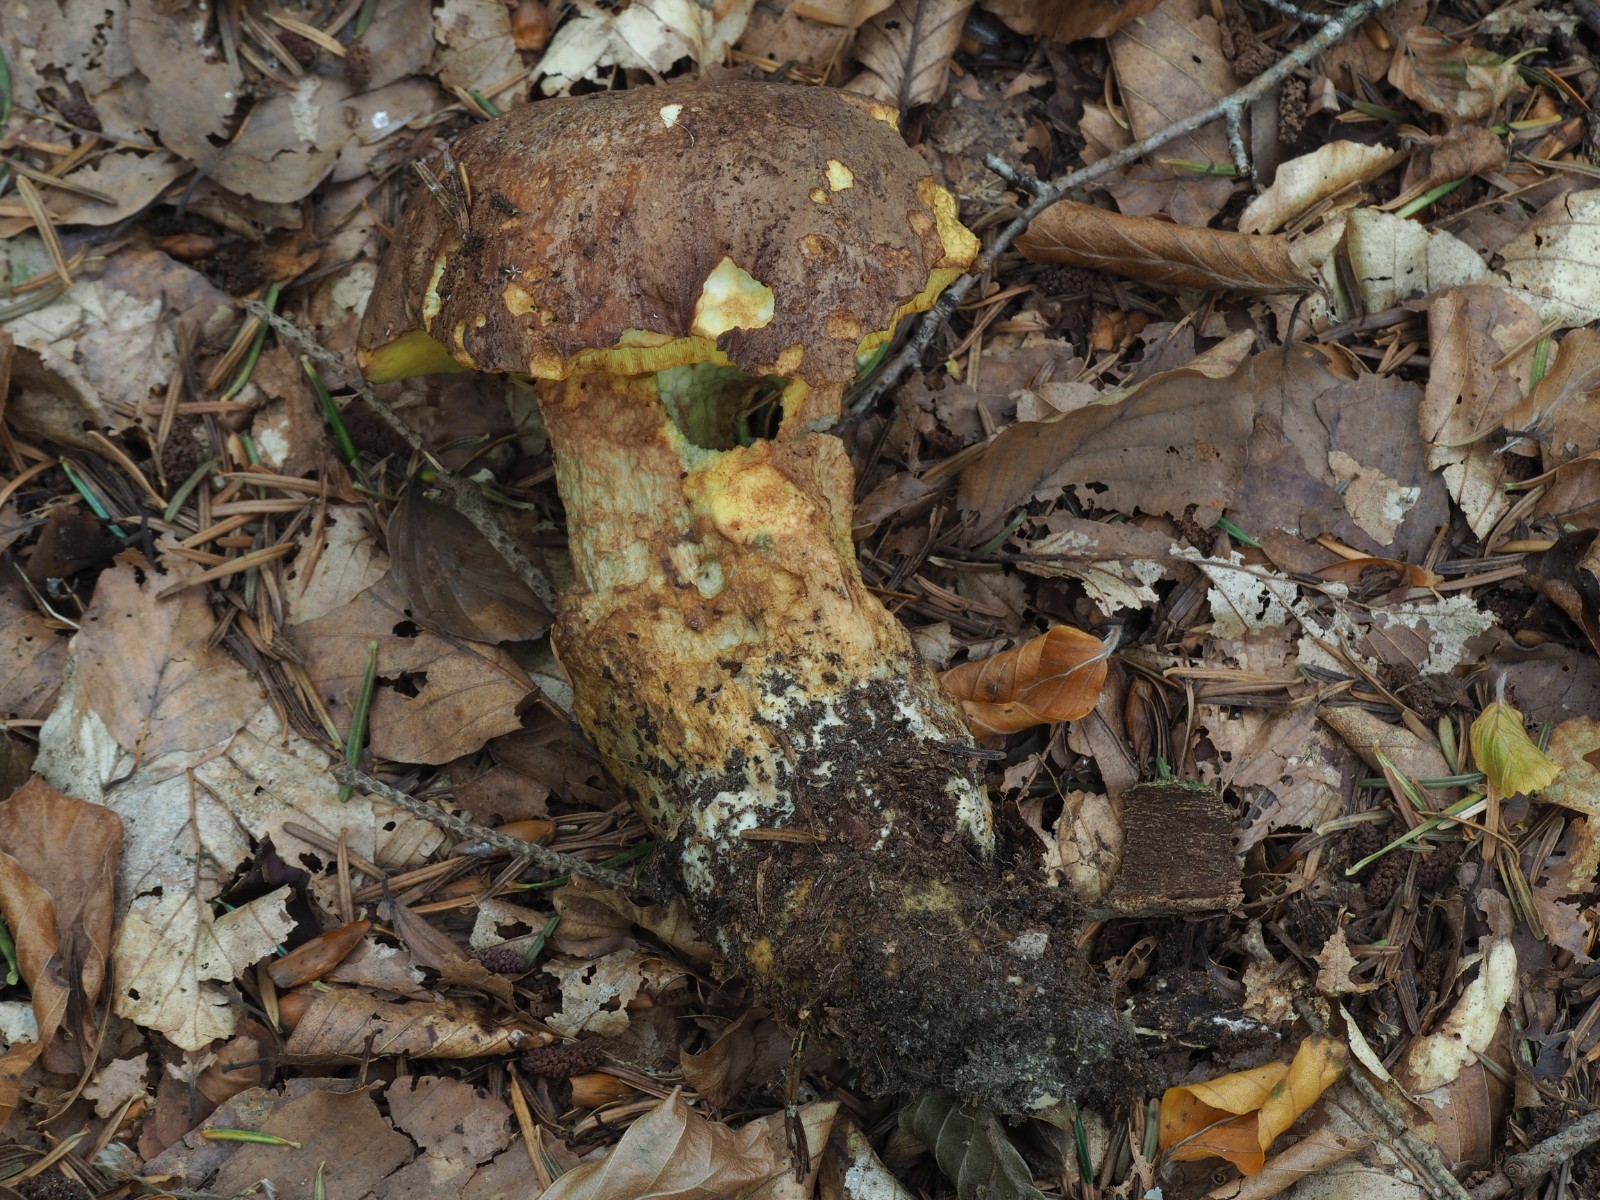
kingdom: Fungi
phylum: Basidiomycota
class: Agaricomycetes
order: Boletales
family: Boletaceae
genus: Butyriboletus
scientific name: Butyriboletus appendiculatus
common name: tenstokket rørhat
